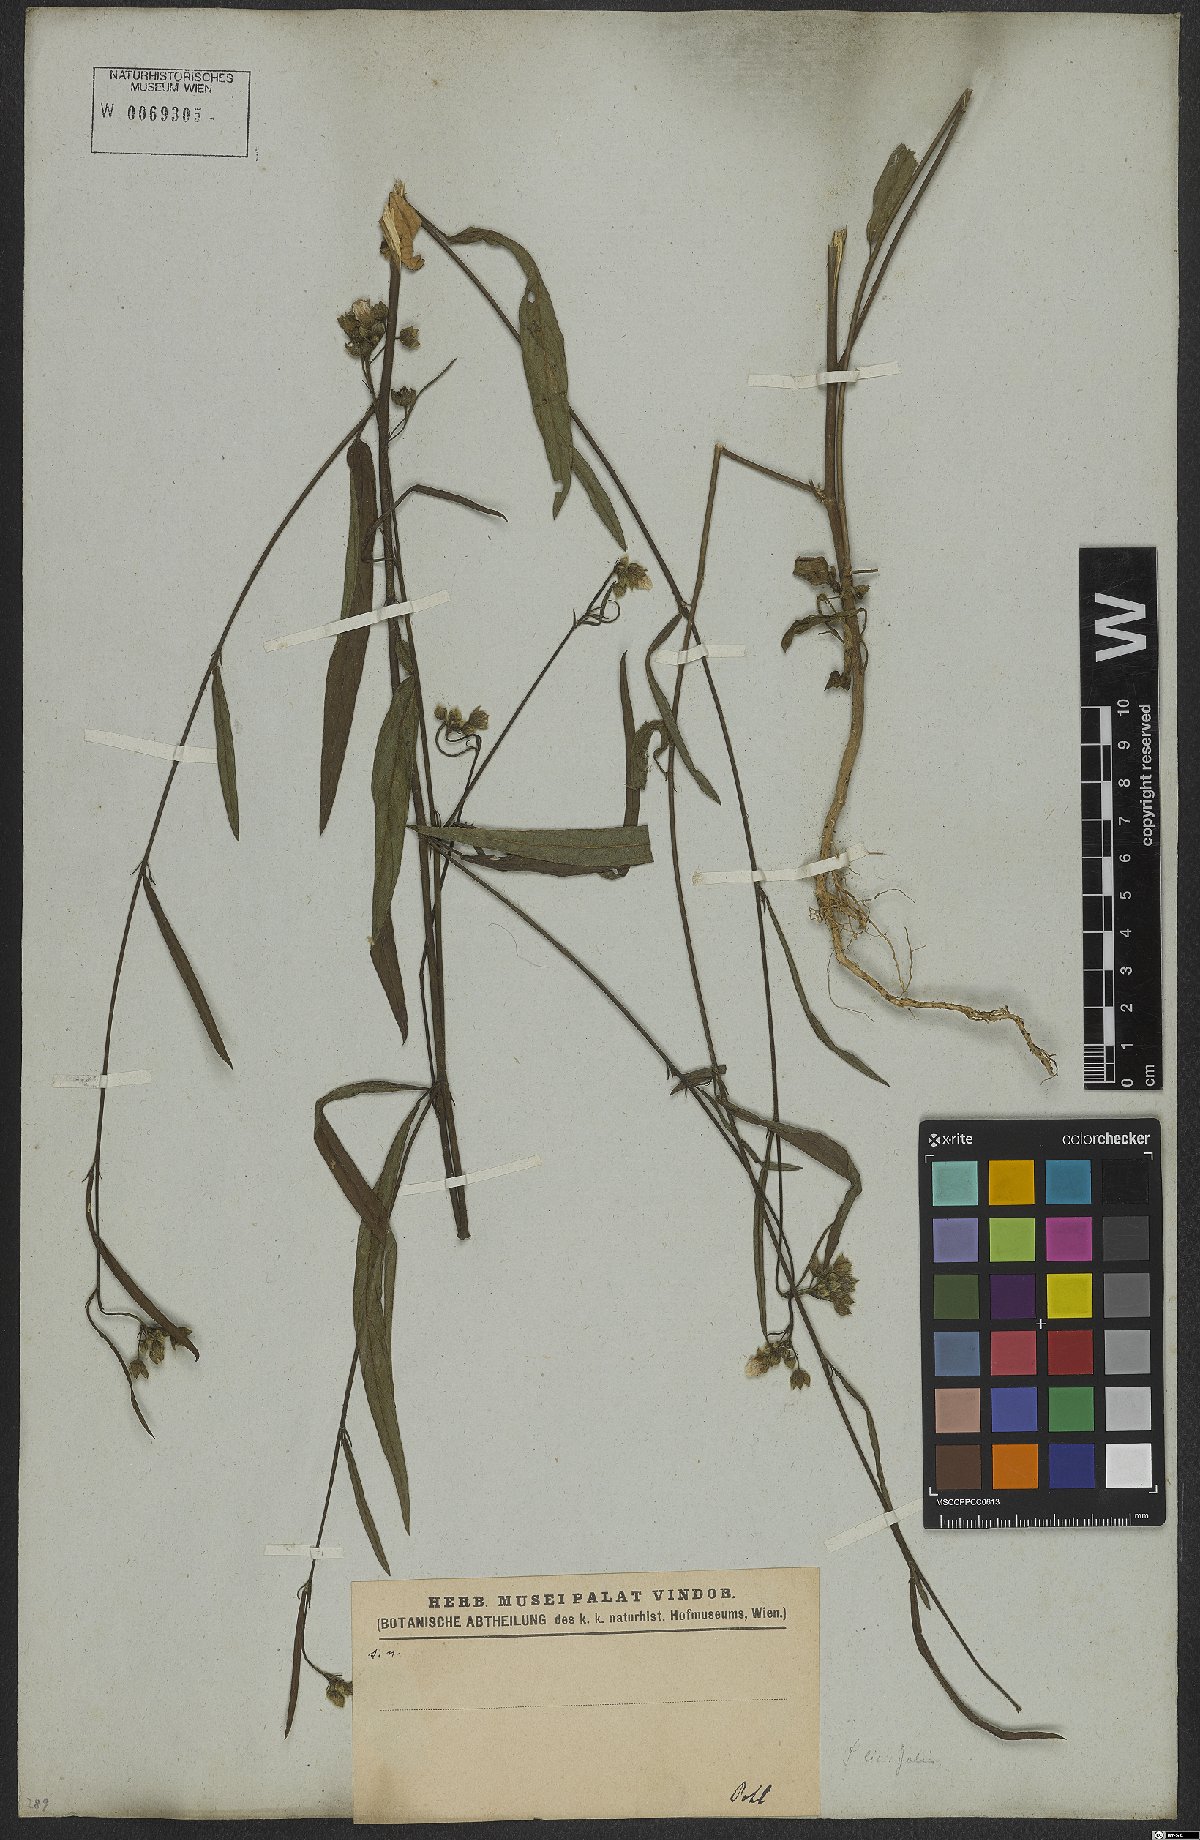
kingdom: Plantae
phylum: Tracheophyta
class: Magnoliopsida
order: Malvales
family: Malvaceae
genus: Sida
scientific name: Sida linifolia
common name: Flaxleaf fanpetals
